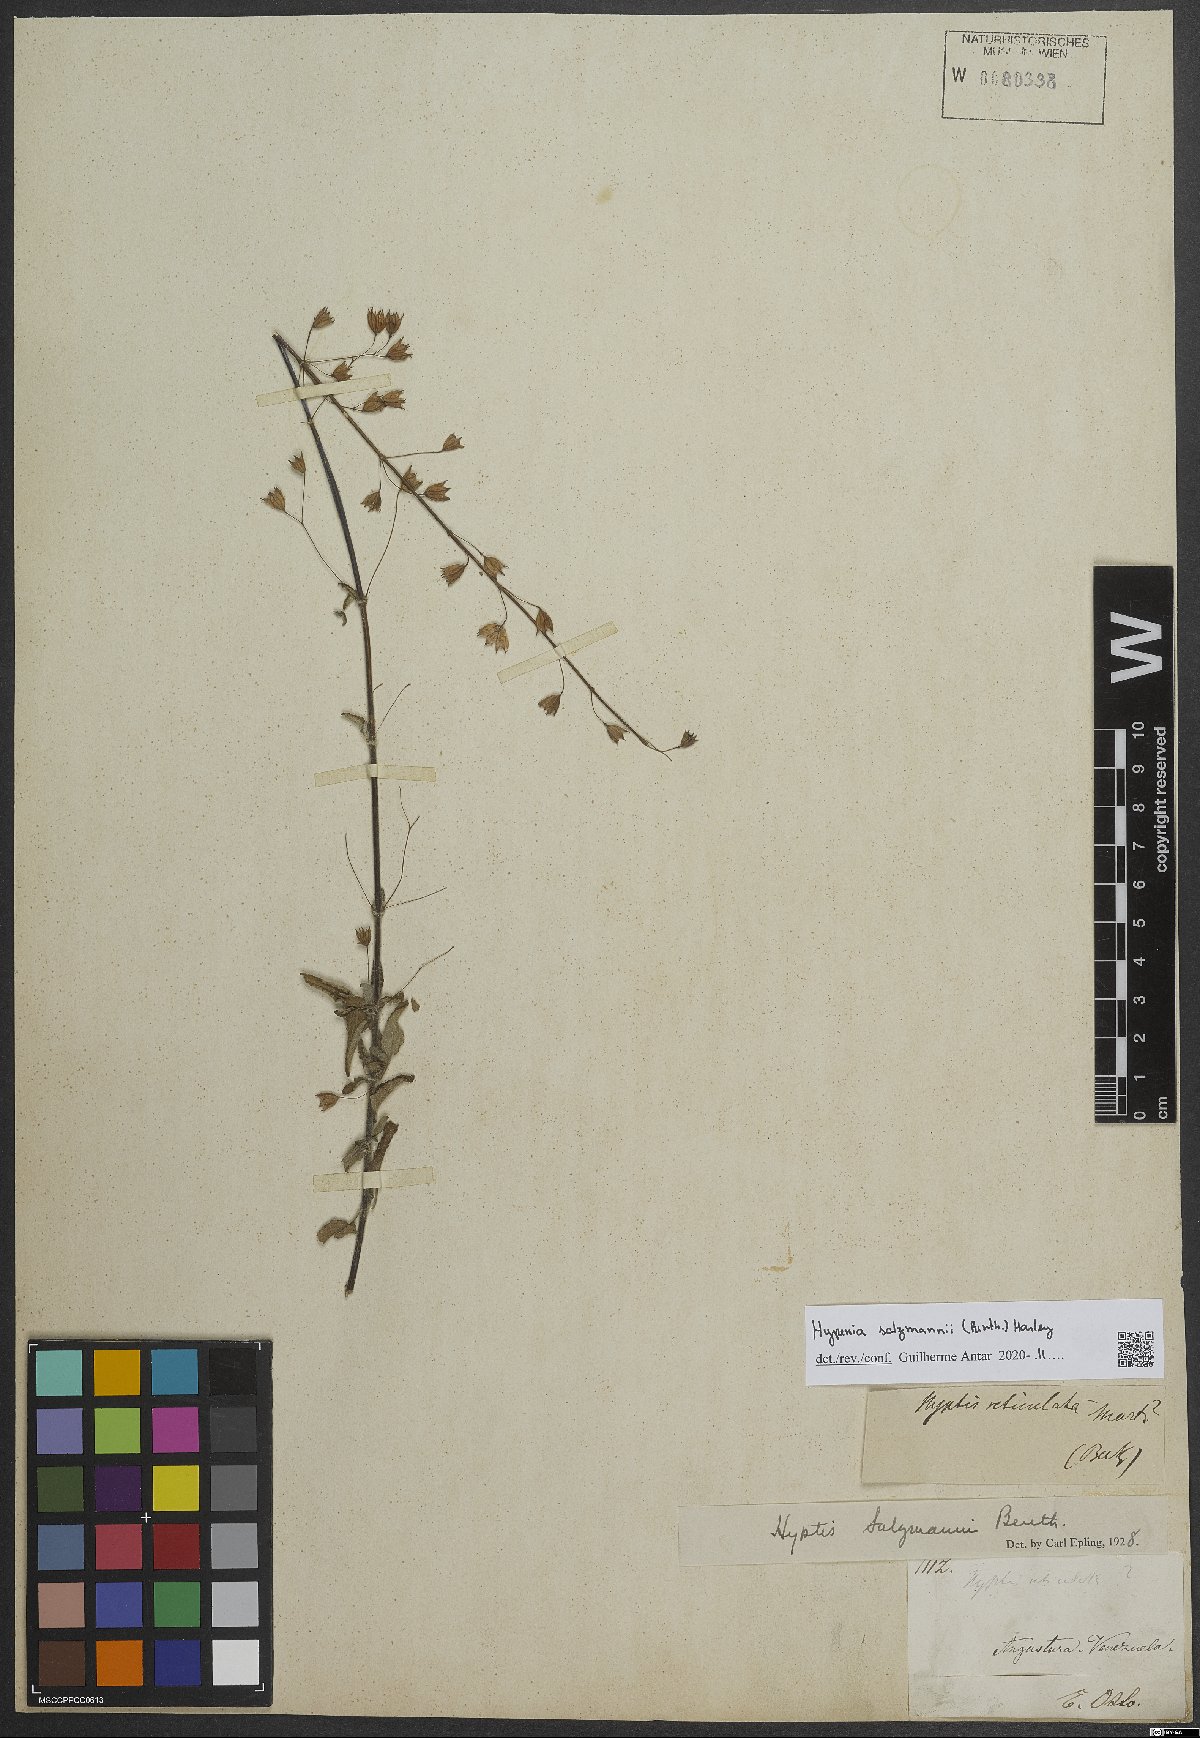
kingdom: Plantae
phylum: Tracheophyta
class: Magnoliopsida
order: Lamiales
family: Lamiaceae
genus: Hypenia
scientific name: Hypenia salzmannii
